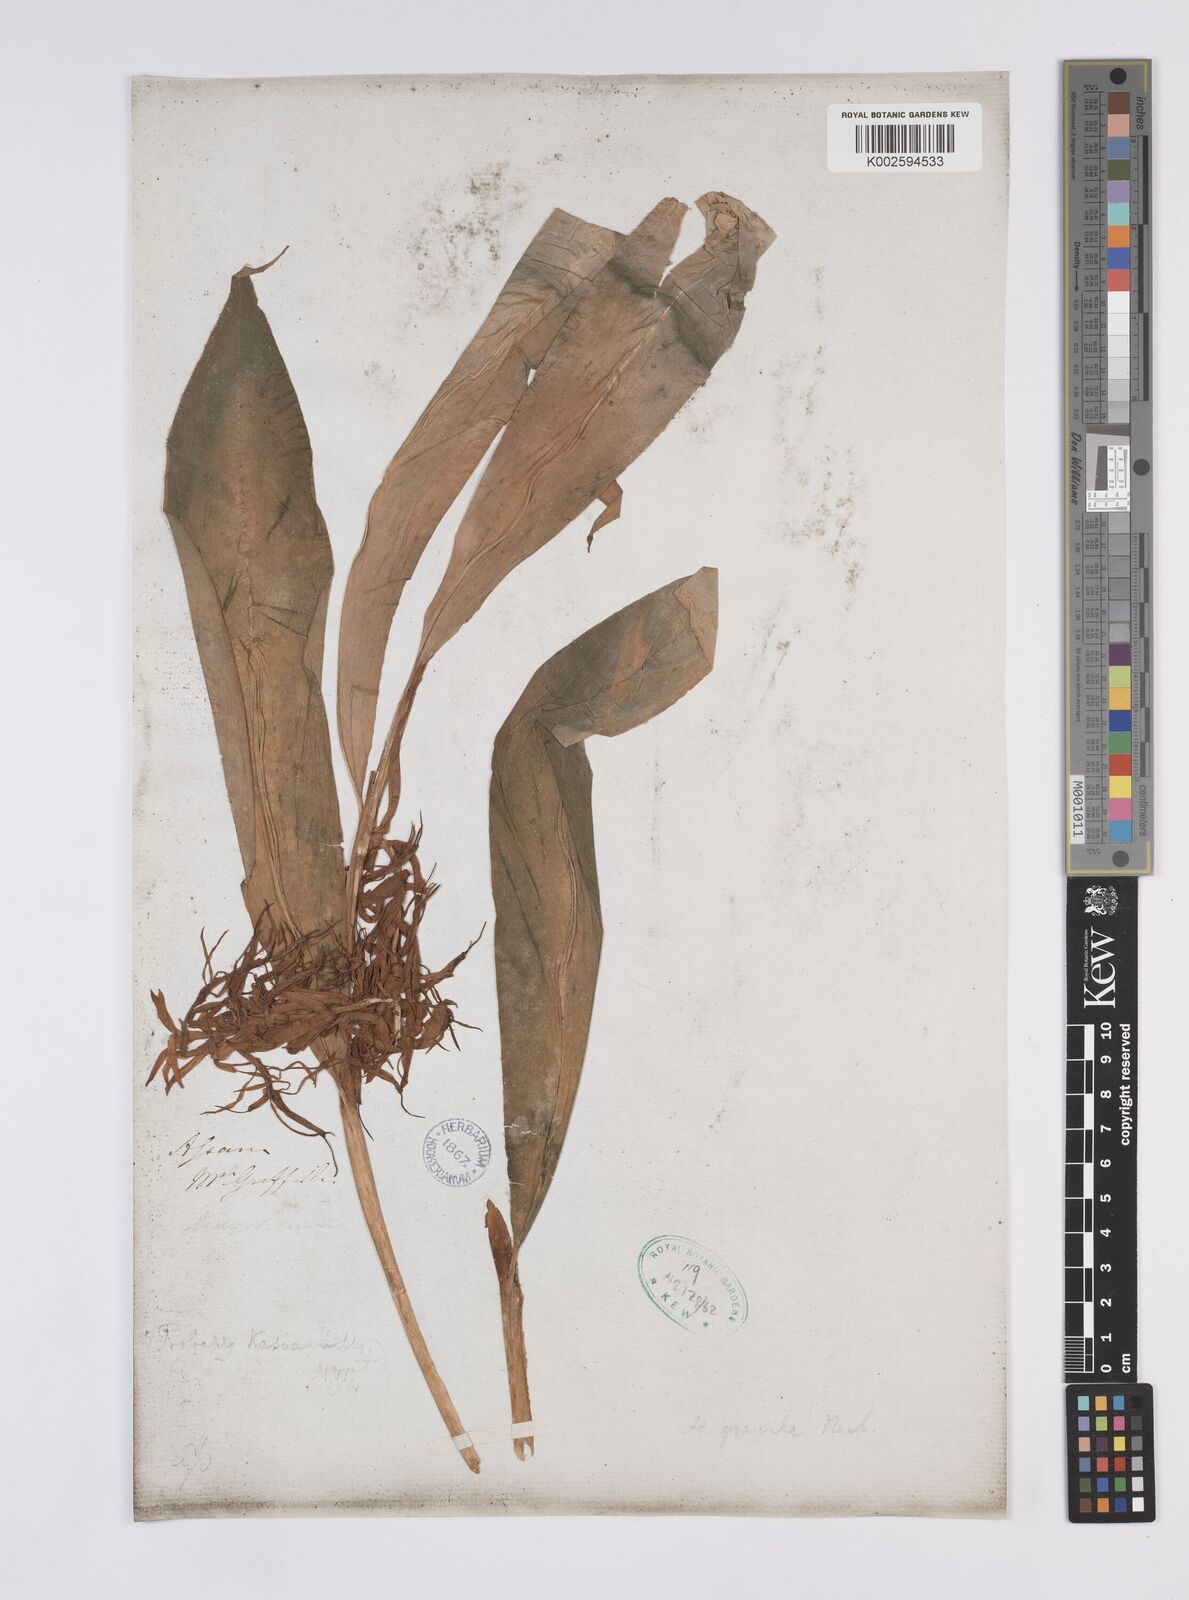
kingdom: Plantae
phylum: Tracheophyta
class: Liliopsida
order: Zingiberales
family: Zingiberaceae
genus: Hedychium
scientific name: Hedychium gracile
